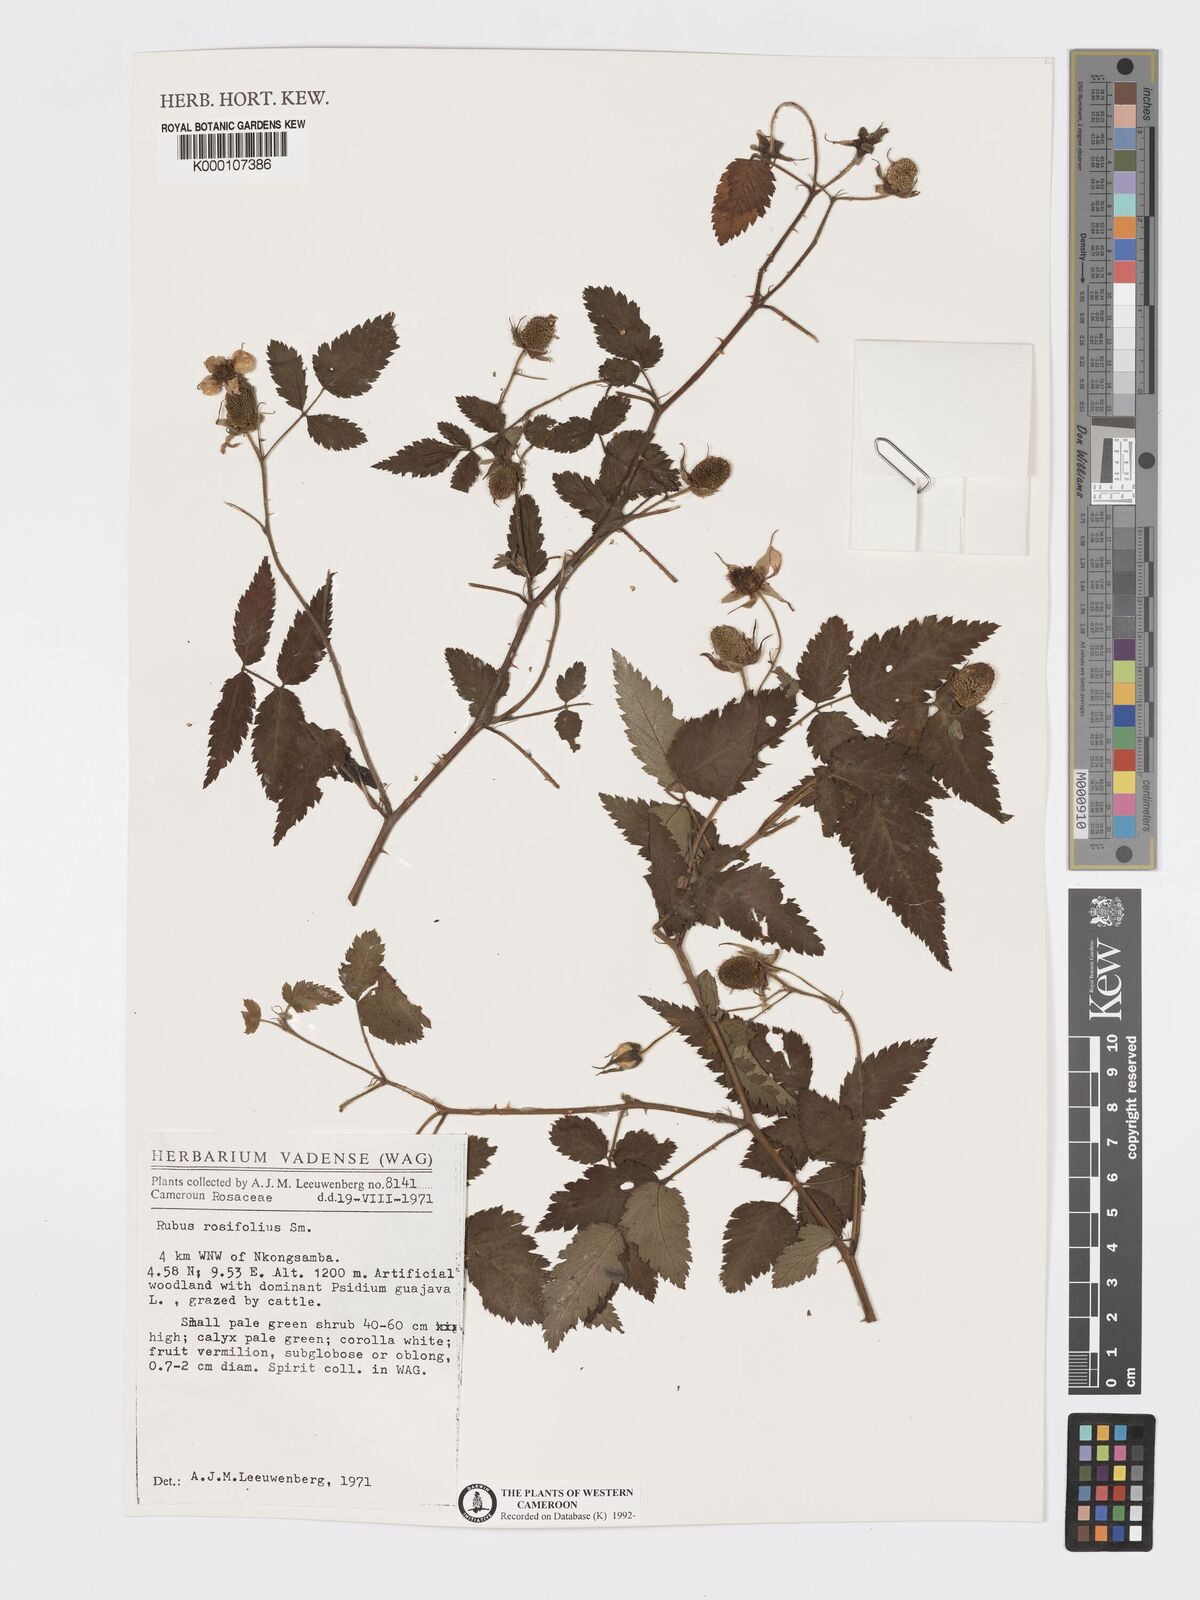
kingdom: Plantae
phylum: Tracheophyta
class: Magnoliopsida
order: Rosales
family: Rosaceae
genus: Rubus
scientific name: Rubus rosifolius
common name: Roseleaf raspberry
